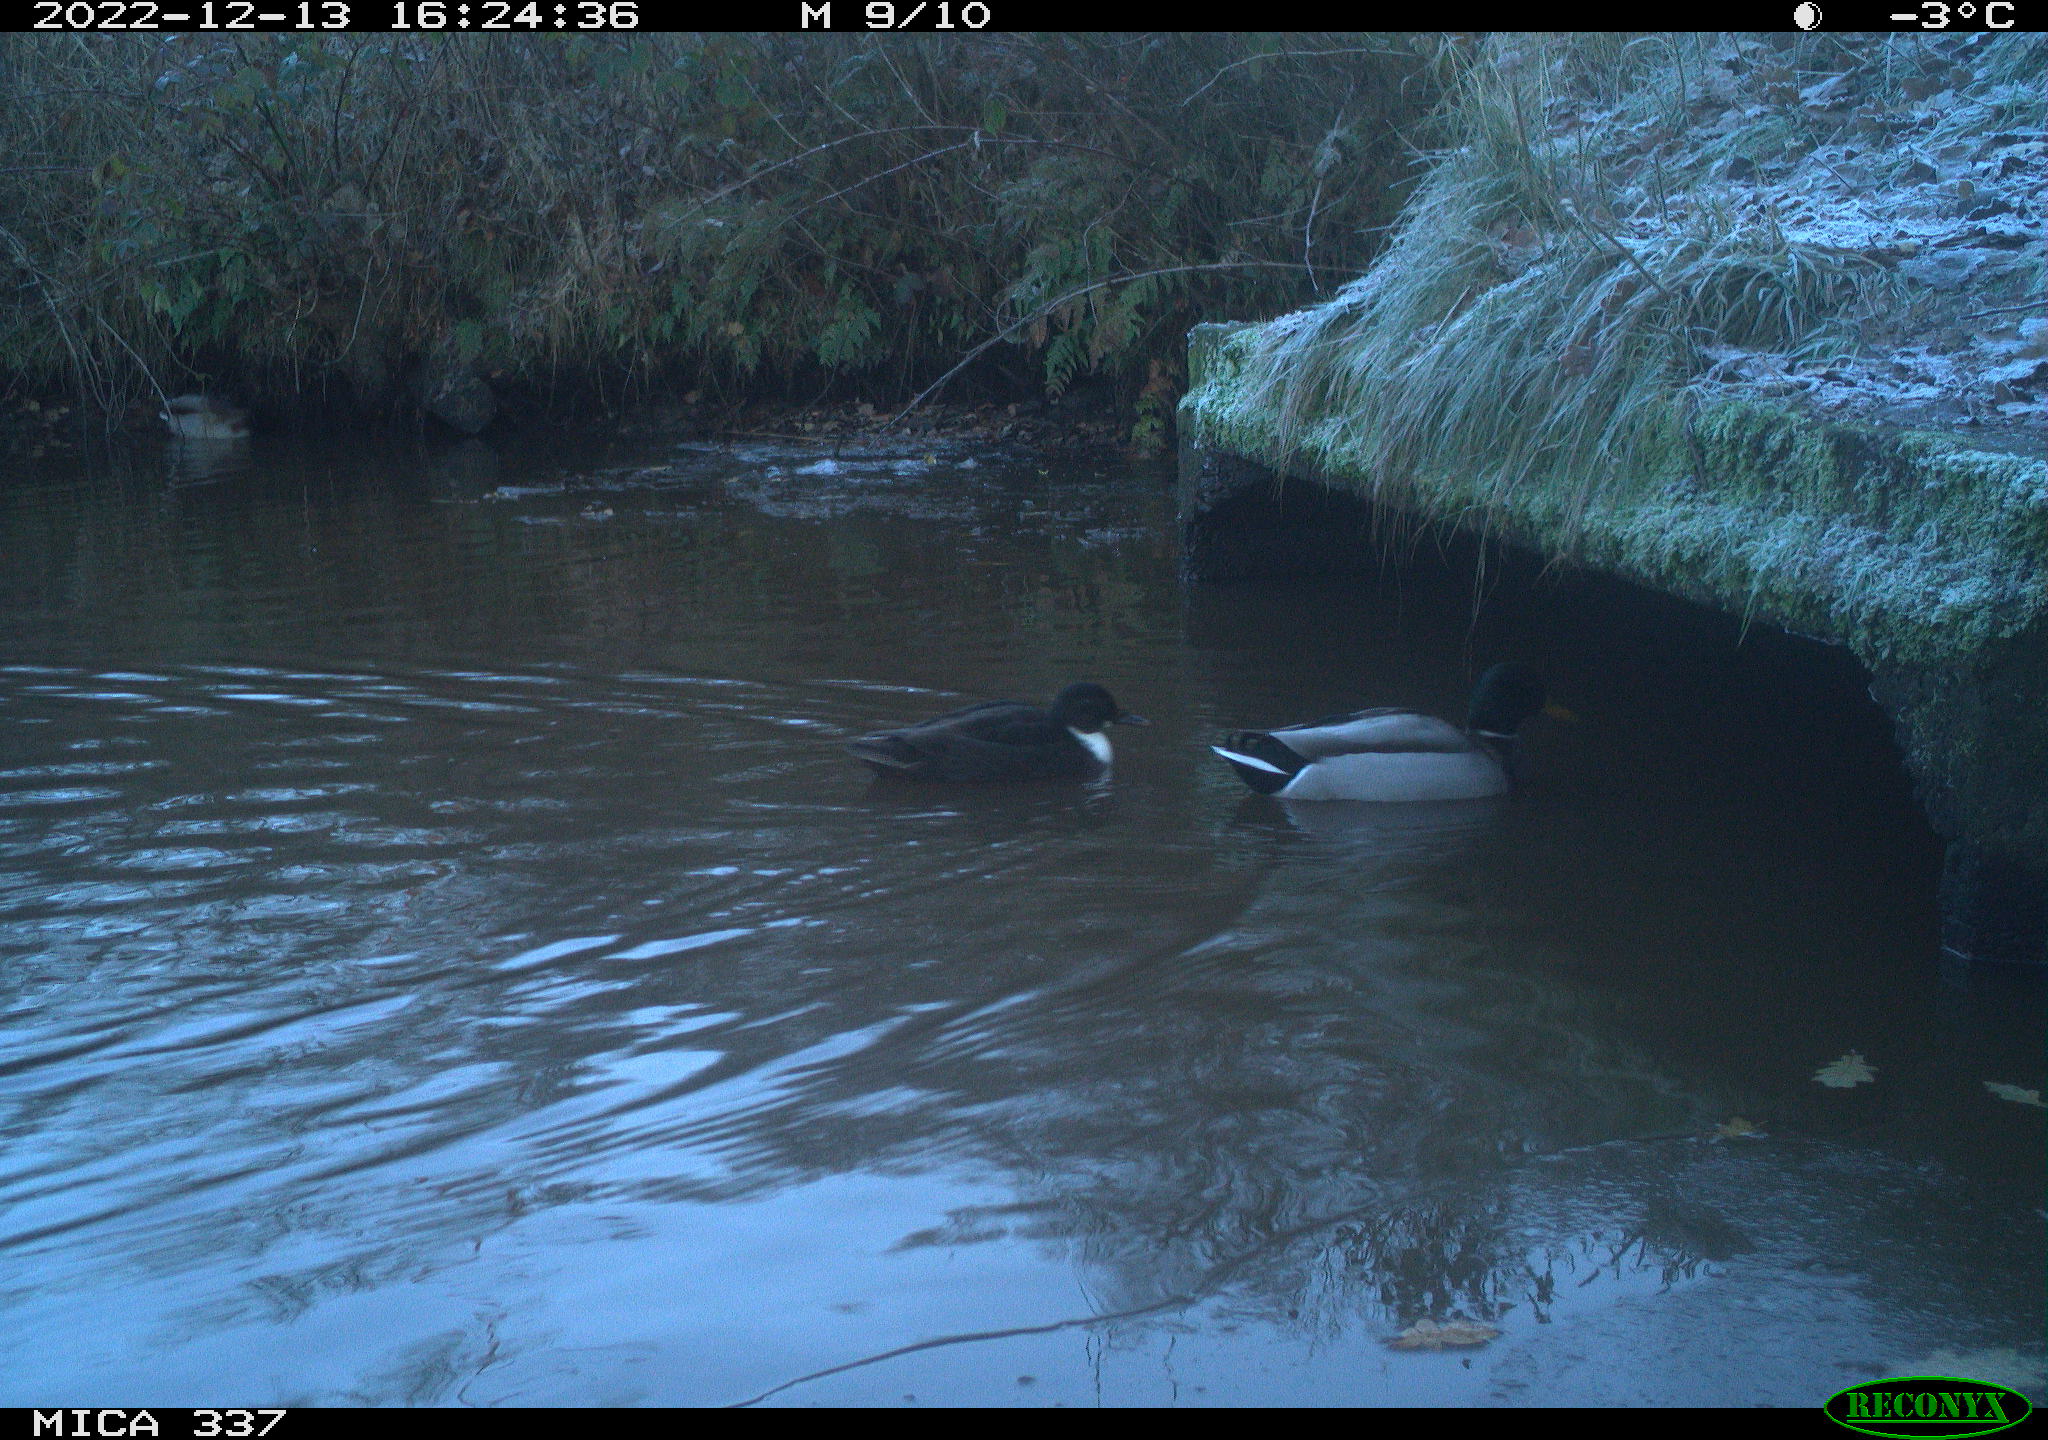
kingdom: Animalia
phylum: Chordata
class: Aves
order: Anseriformes
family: Anatidae
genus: Anas
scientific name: Anas
